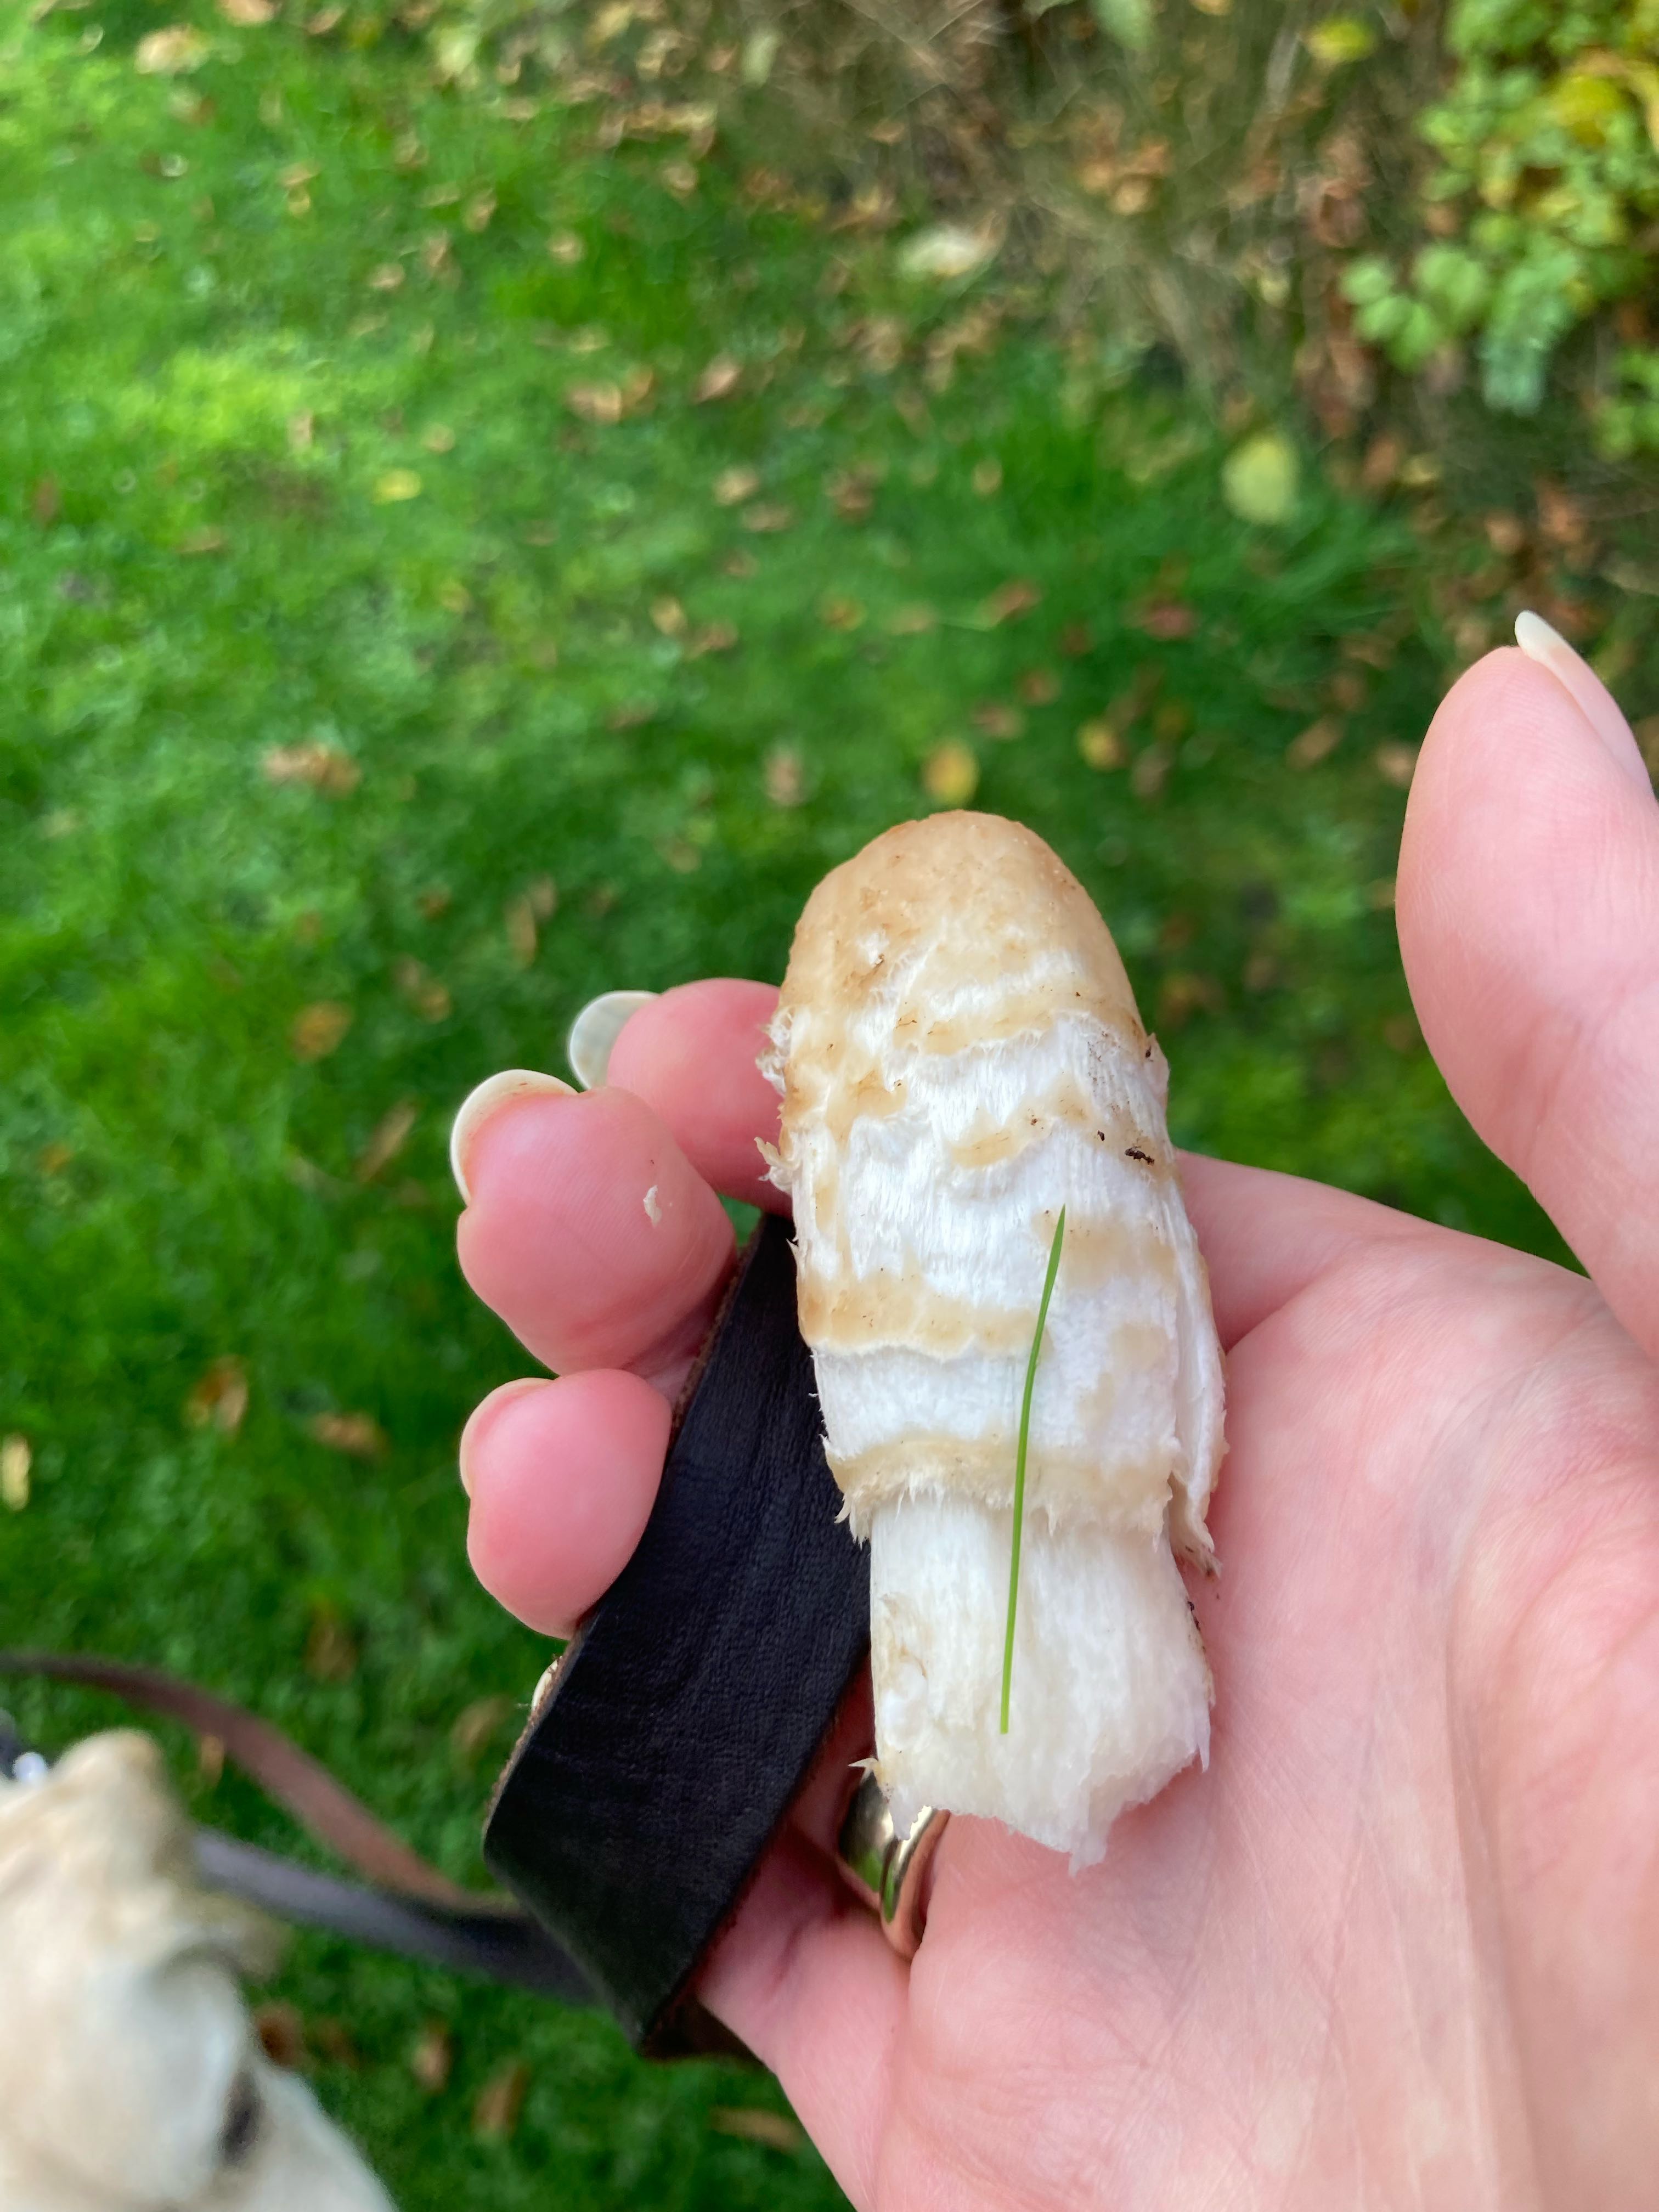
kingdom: Fungi
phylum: Basidiomycota
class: Agaricomycetes
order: Agaricales
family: Agaricaceae
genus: Coprinus
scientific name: Coprinus comatus
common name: stor parykhat
